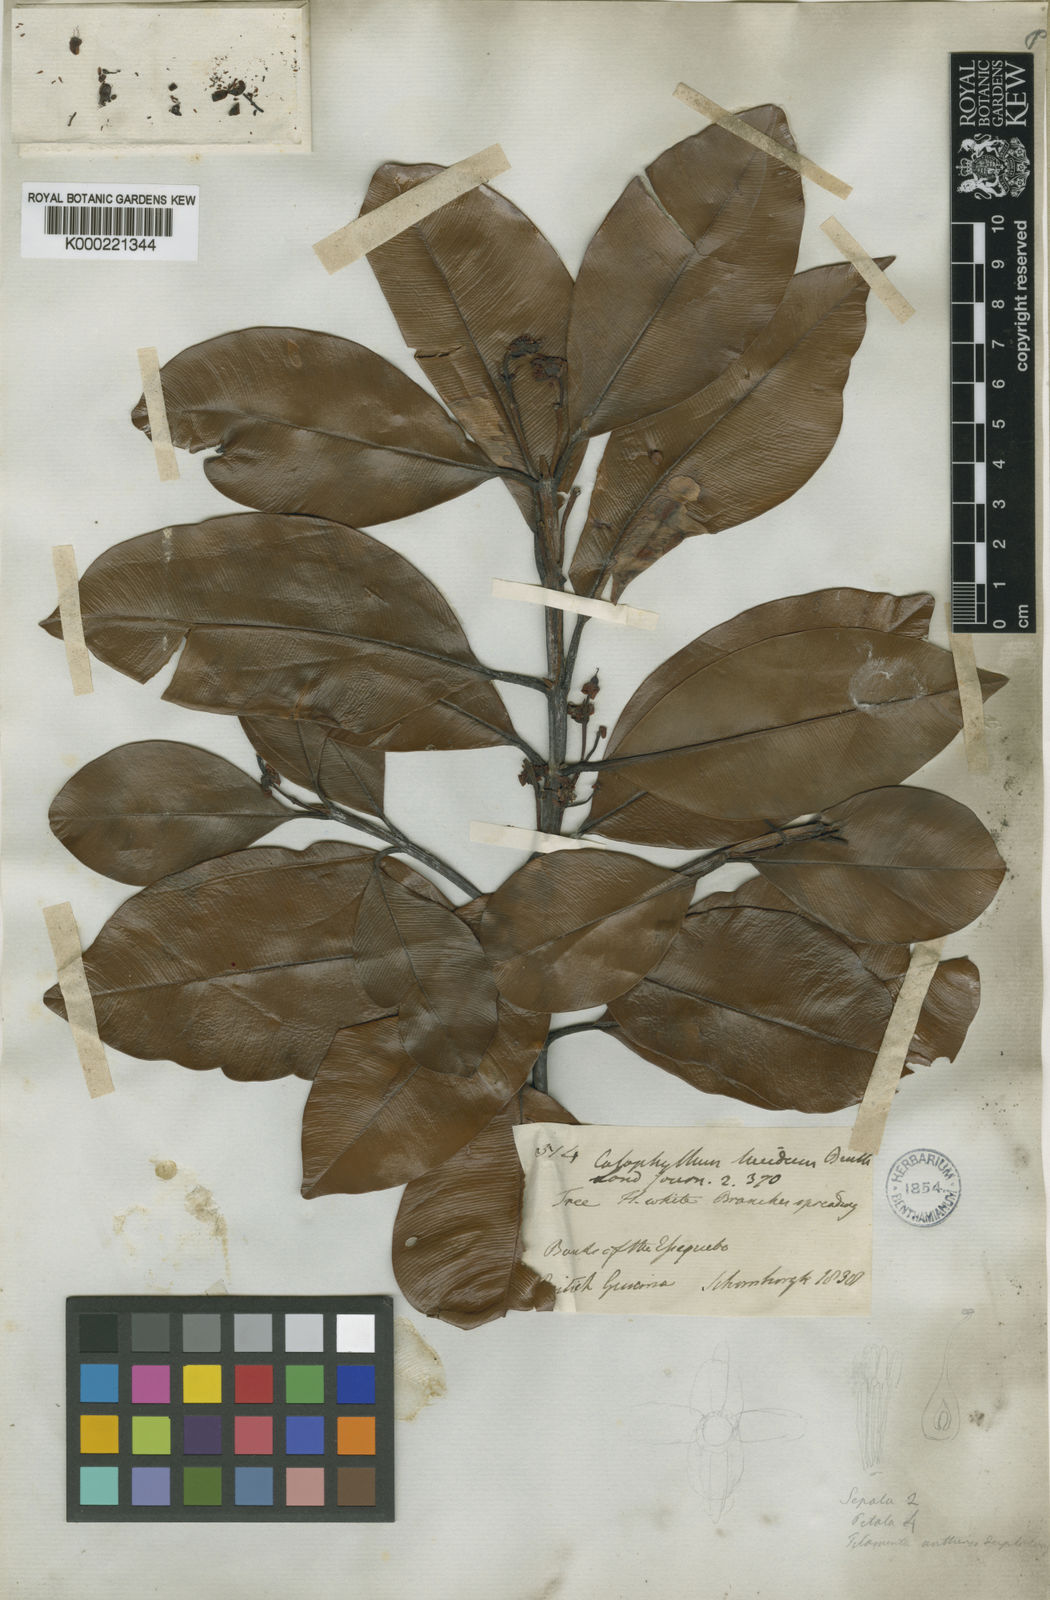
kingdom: Plantae
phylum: Tracheophyta
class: Magnoliopsida
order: Malpighiales
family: Calophyllaceae
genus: Calophyllum
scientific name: Calophyllum brasiliense
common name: Santa maria
